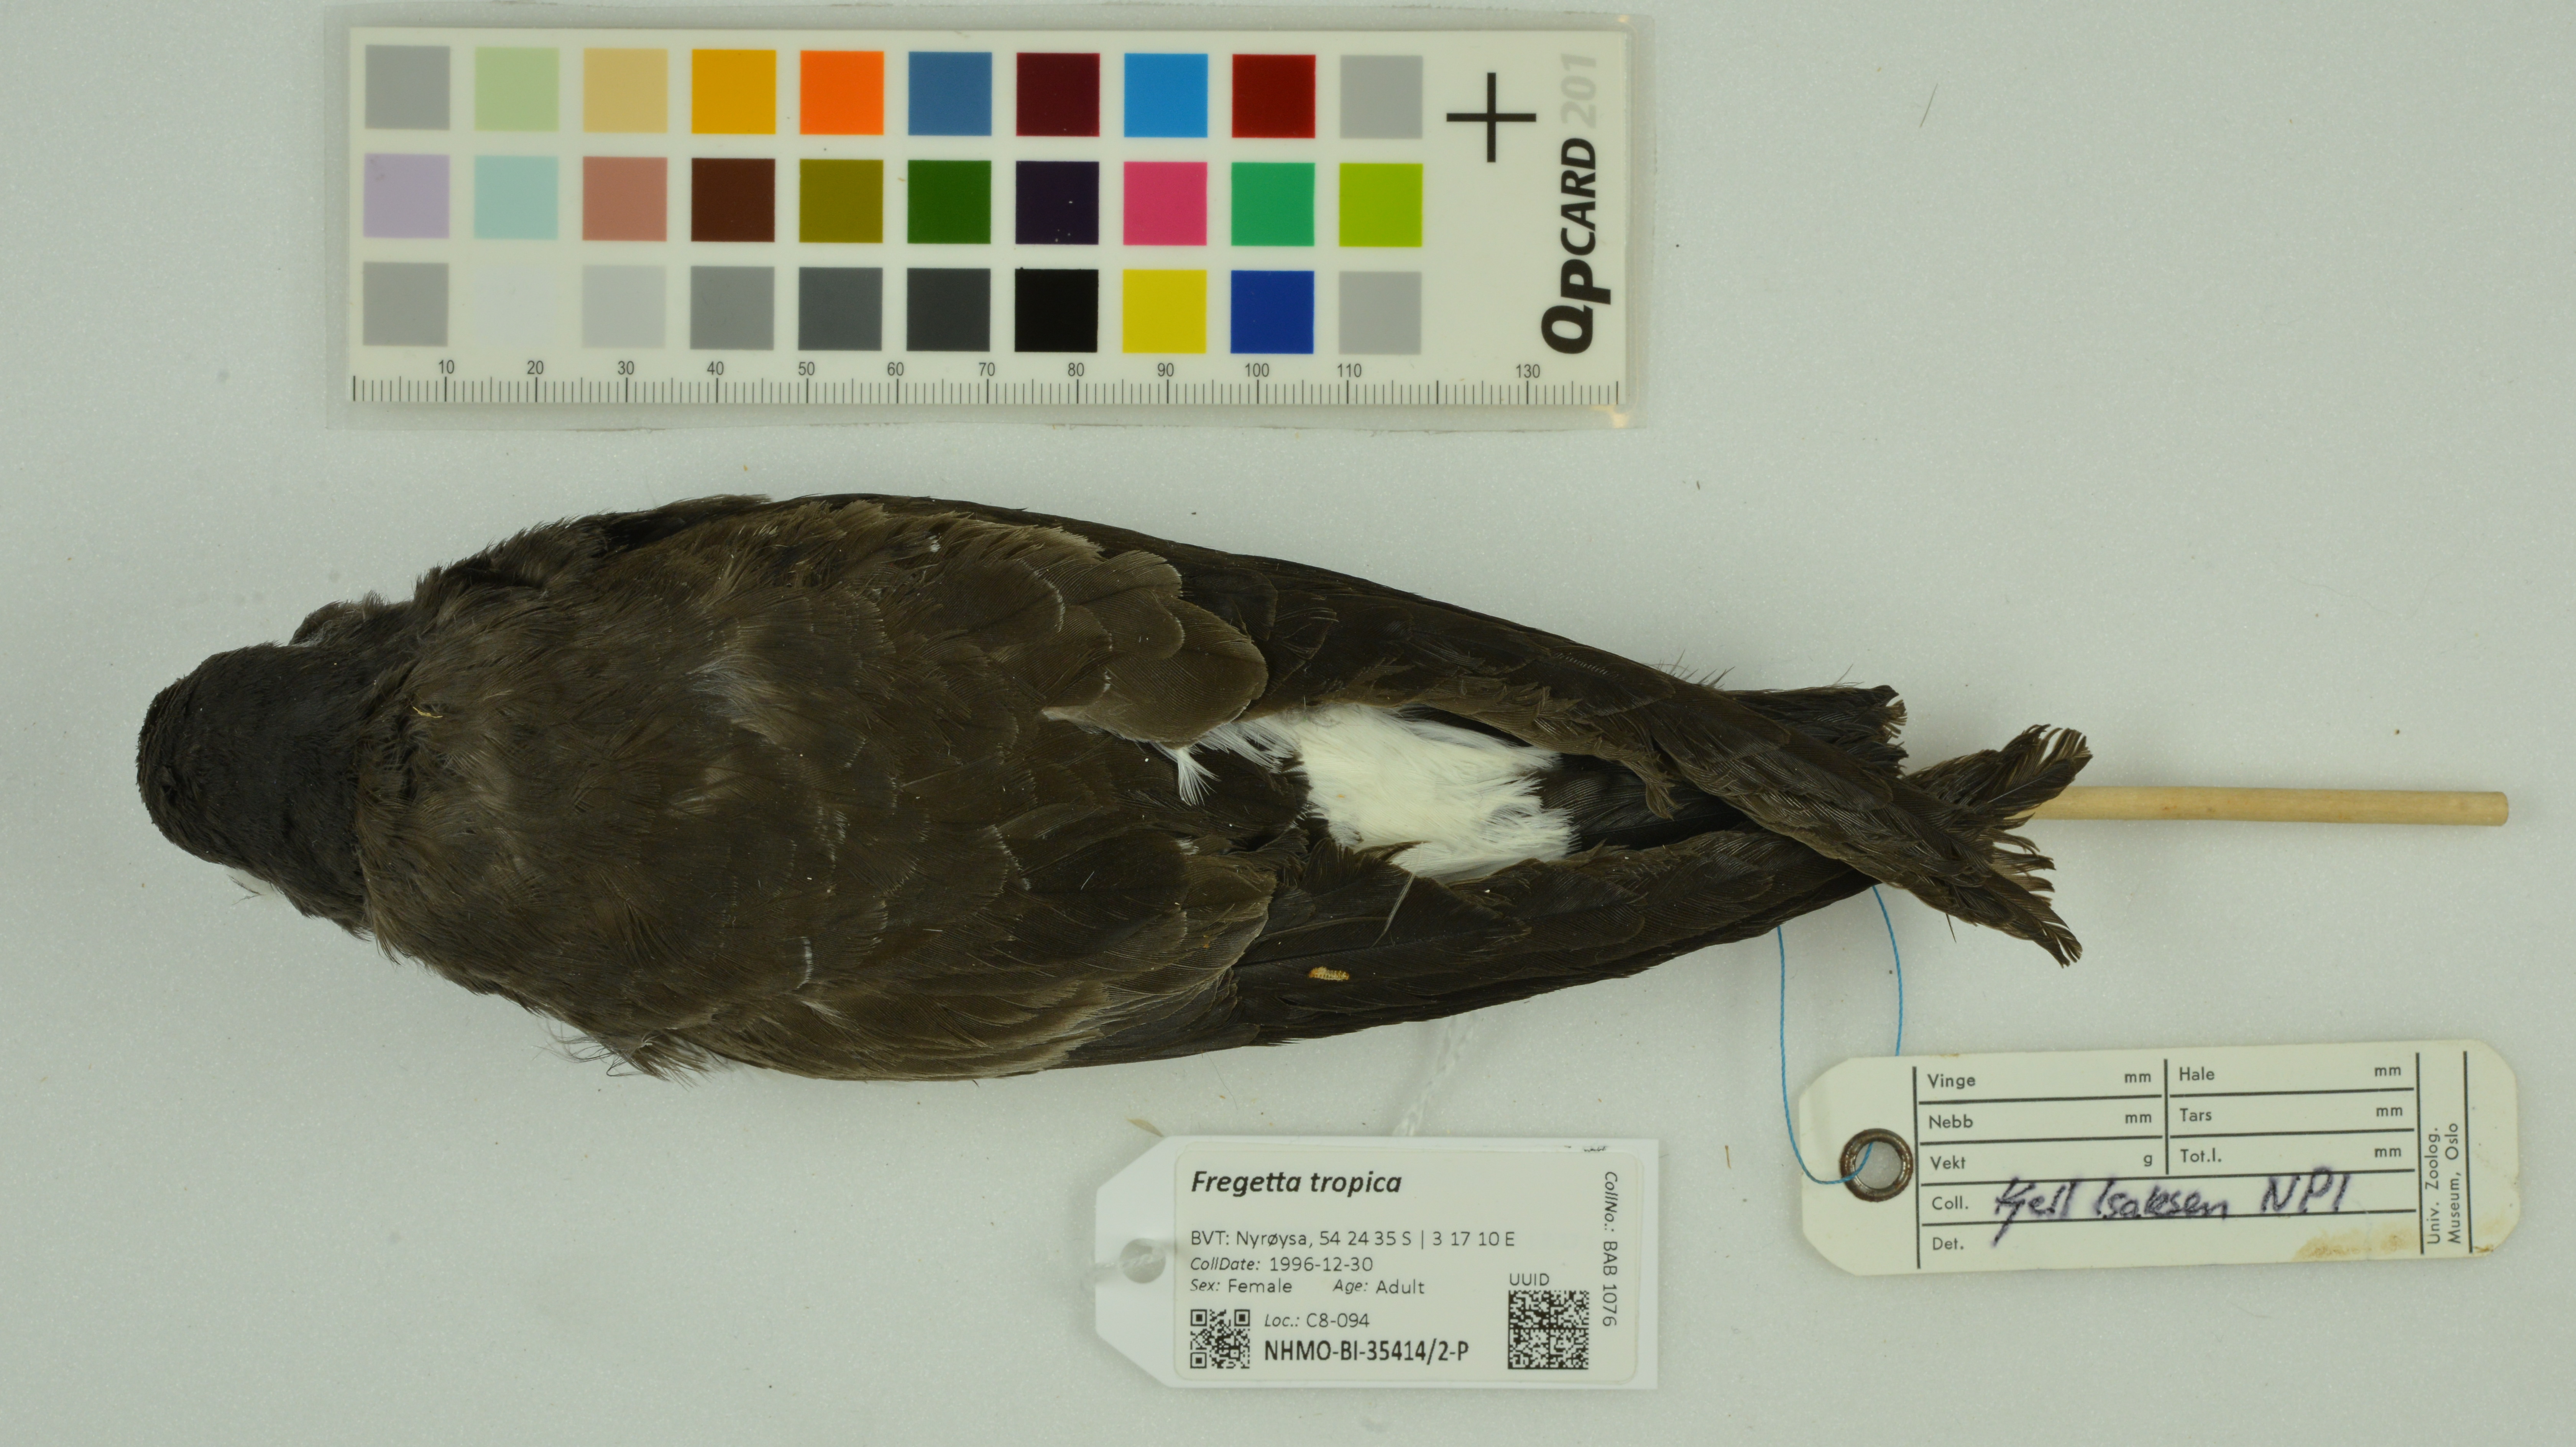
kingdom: Animalia
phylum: Chordata
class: Aves
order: Procellariiformes
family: Hydrobatidae
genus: Fregetta
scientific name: Fregetta tropica
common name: Black-bellied storm-petrel
